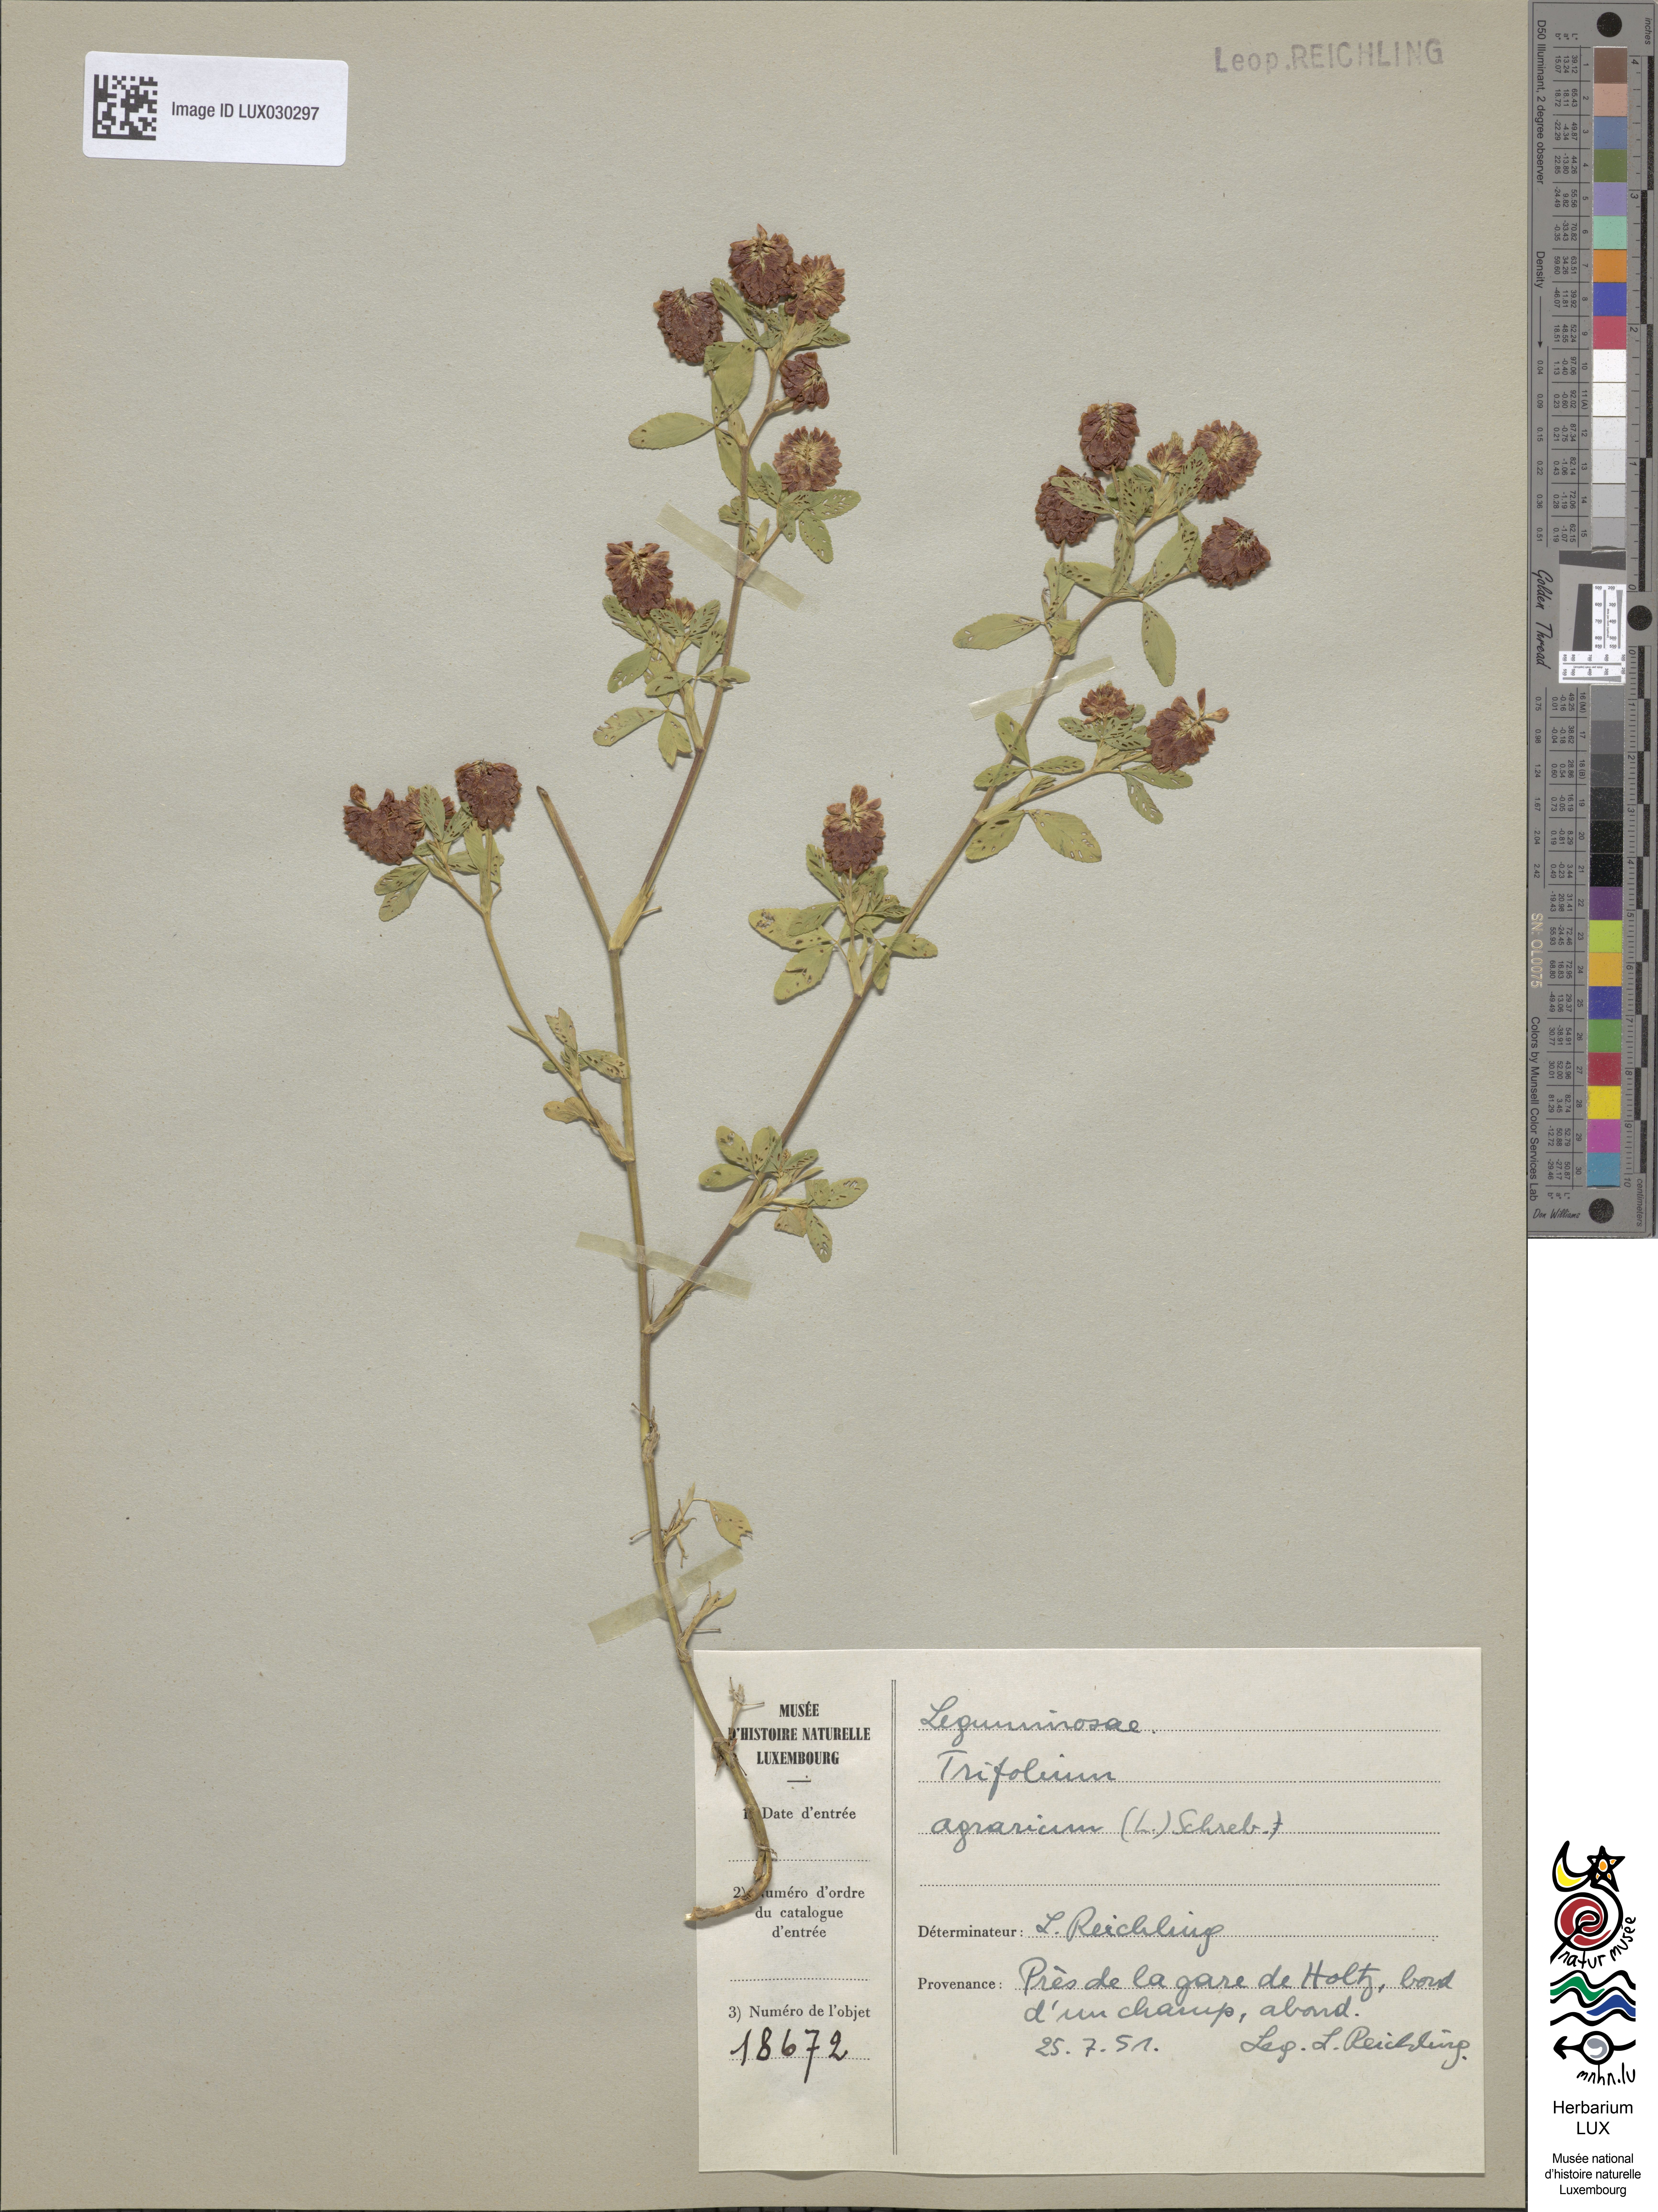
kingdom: Plantae
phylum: Tracheophyta
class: Magnoliopsida
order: Fabales
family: Fabaceae
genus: Trifolium
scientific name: Trifolium aureum
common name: Golden clover
